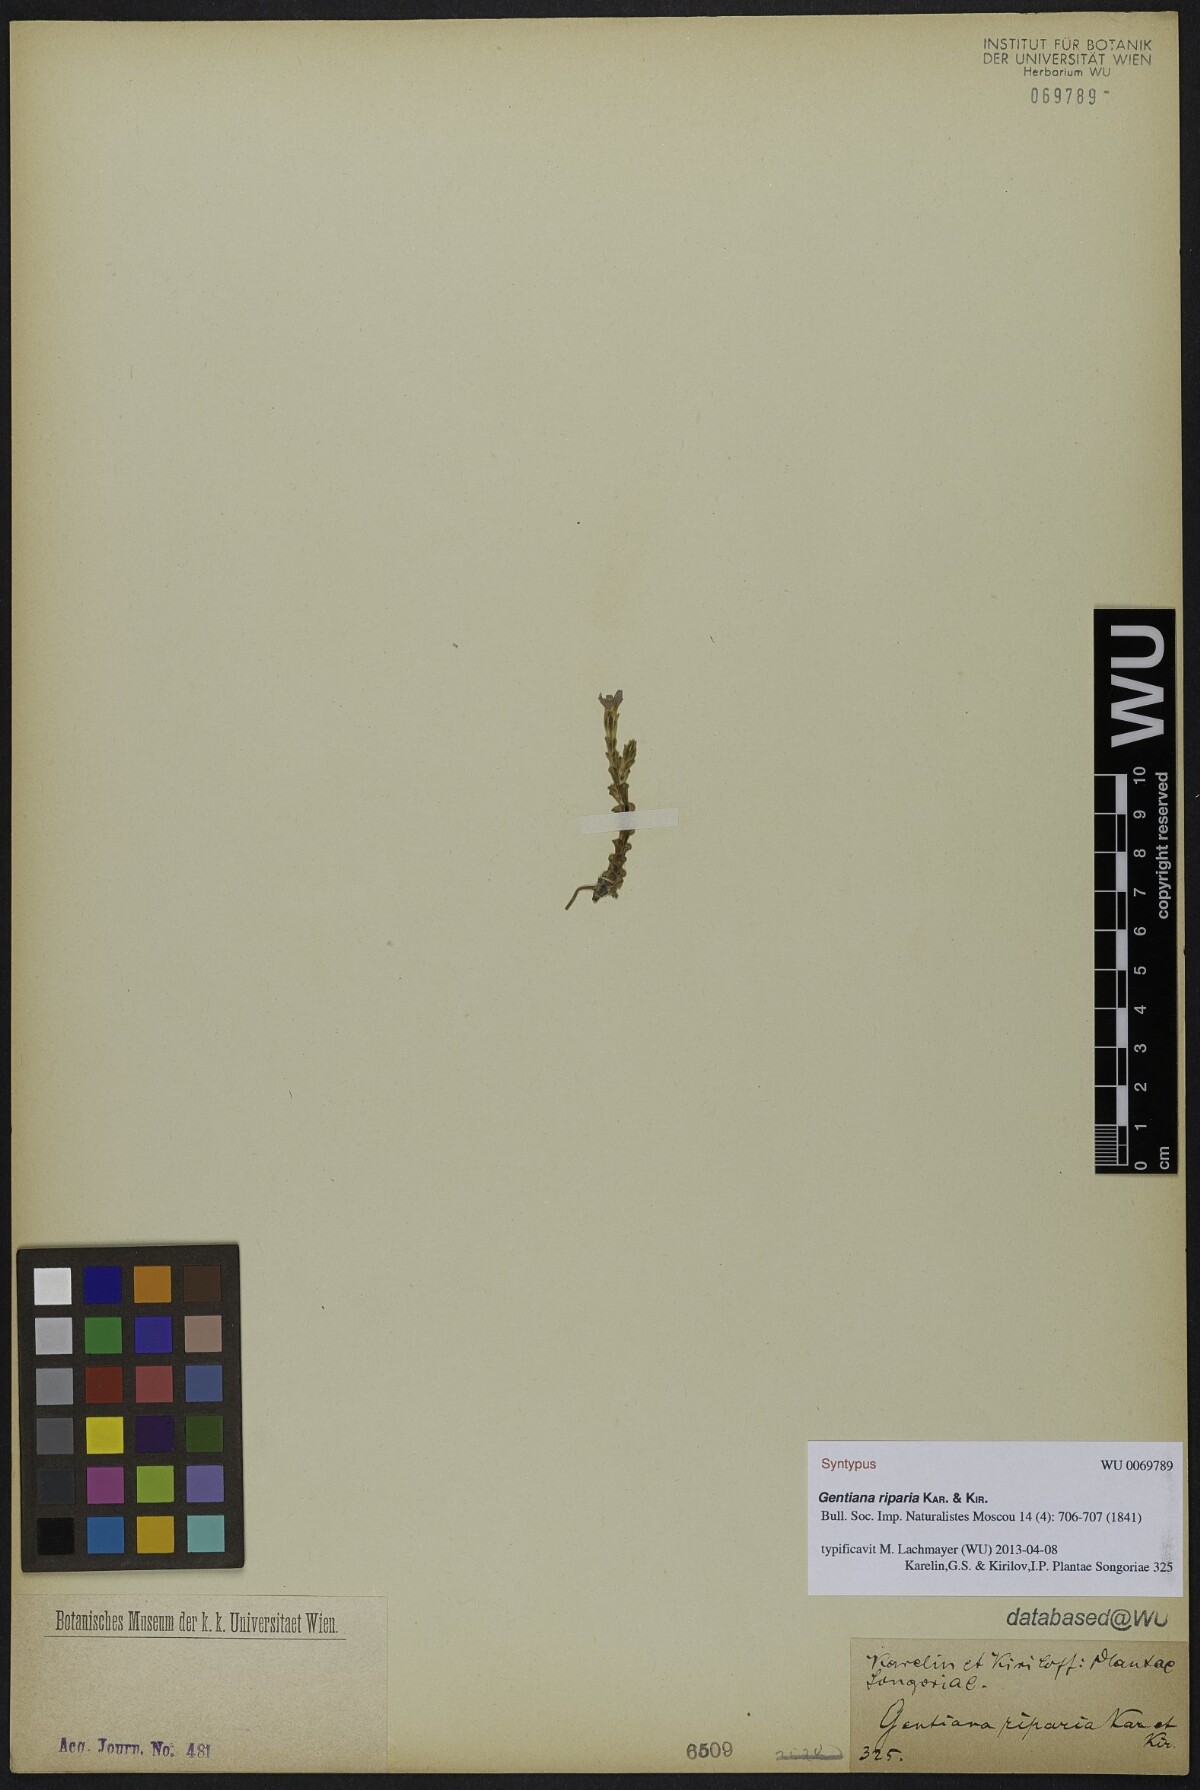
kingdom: Plantae
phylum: Tracheophyta
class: Magnoliopsida
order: Gentianales
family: Gentianaceae
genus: Gentiana
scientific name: Gentiana riparia
